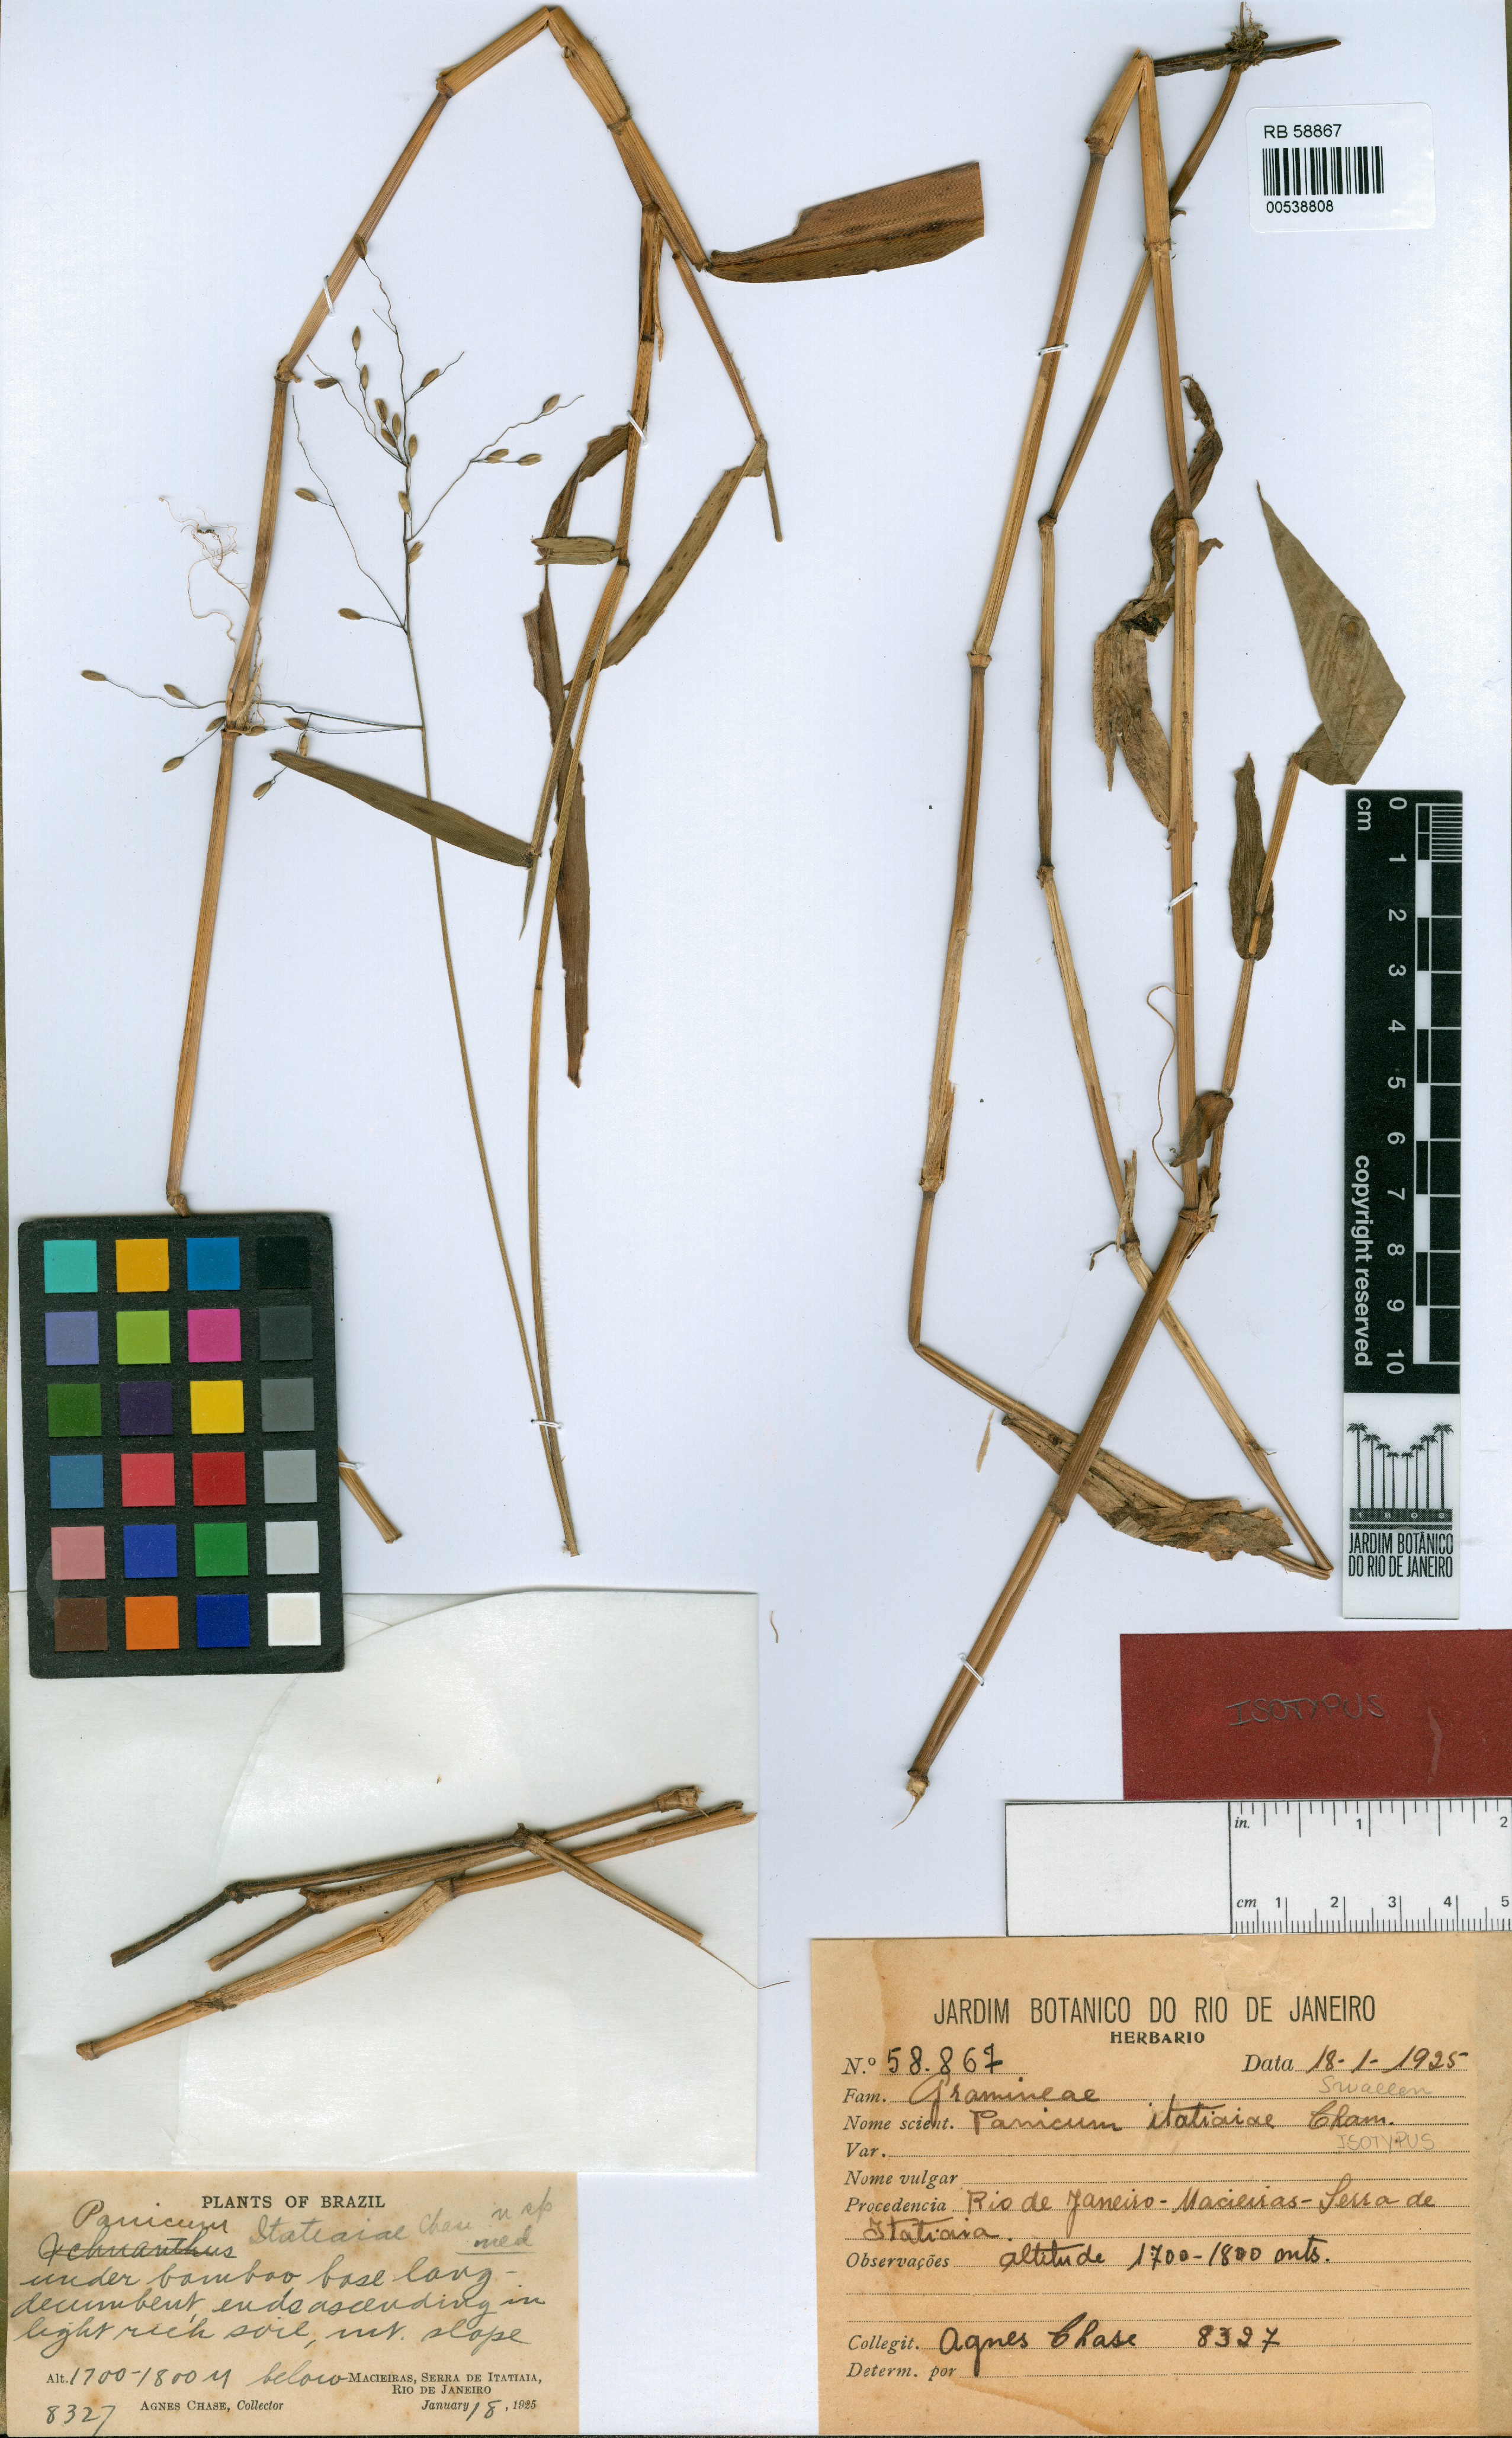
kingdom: Plantae
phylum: Tracheophyta
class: Liliopsida
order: Poales
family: Poaceae
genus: Dichanthelium
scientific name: Dichanthelium itatiaiae
